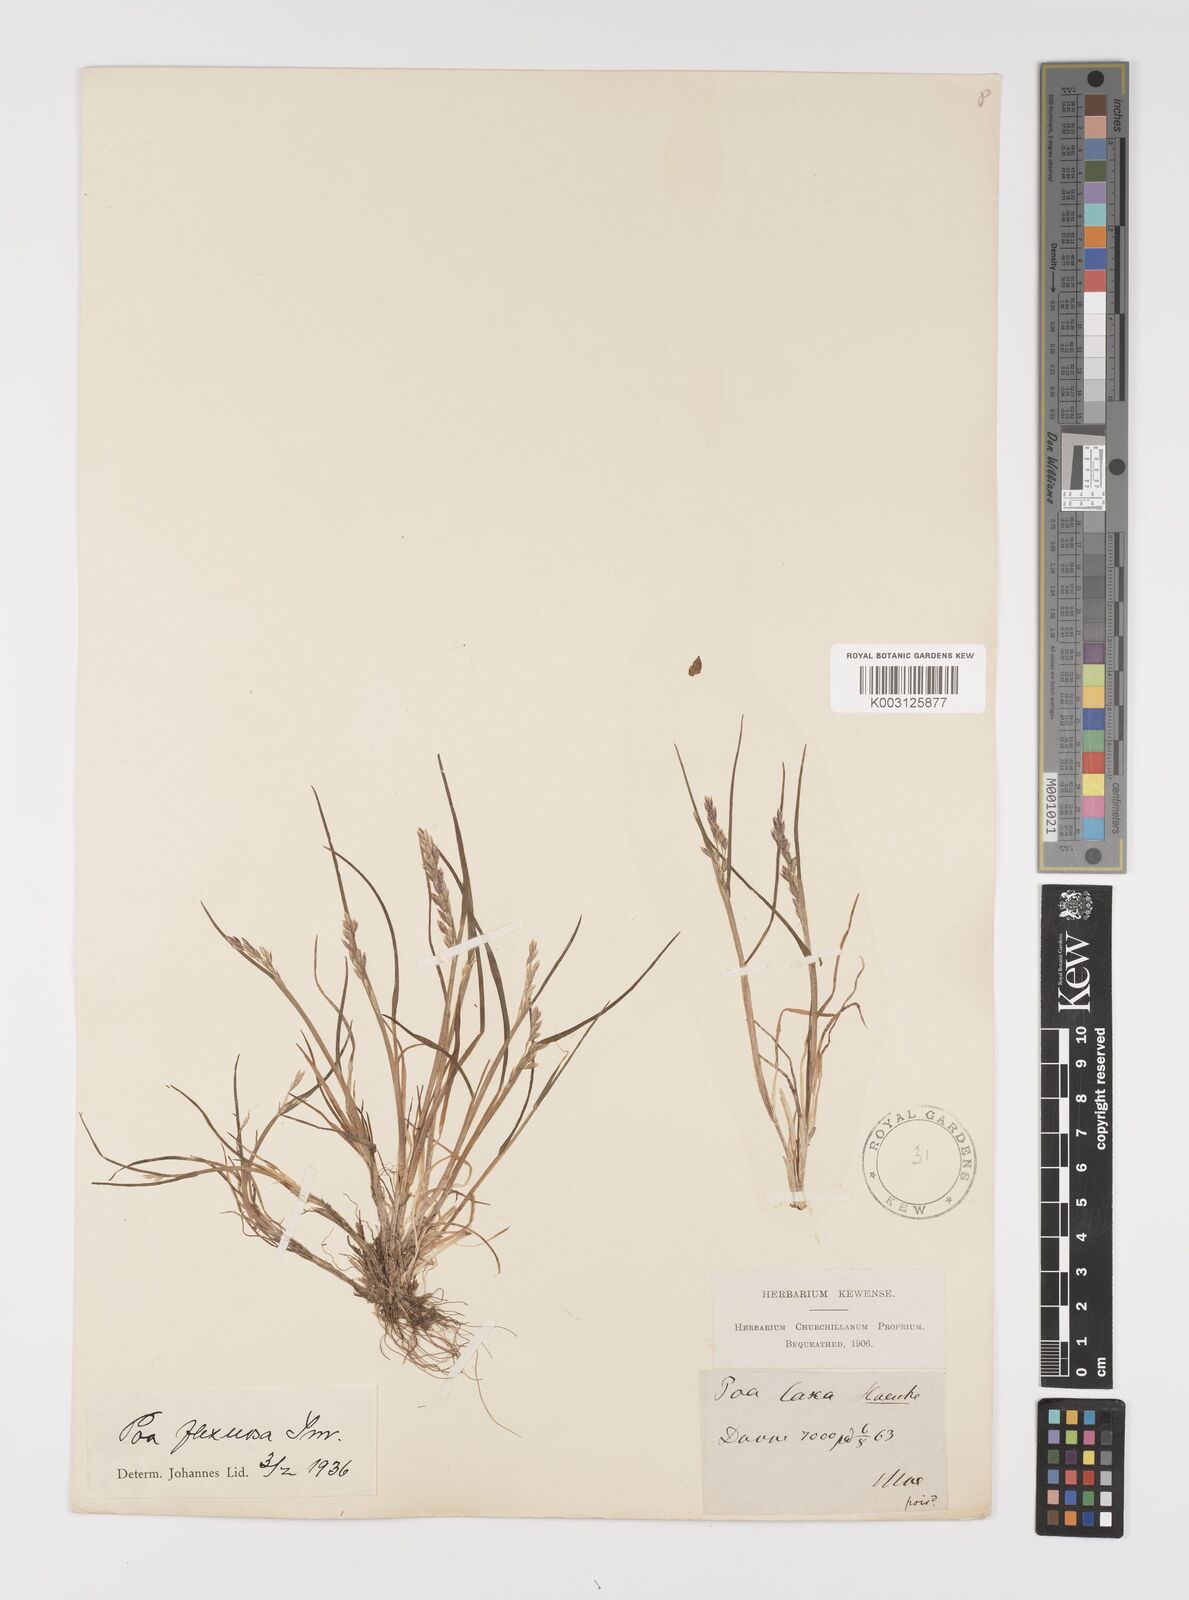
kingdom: Plantae
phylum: Tracheophyta
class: Liliopsida
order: Poales
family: Poaceae
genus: Eragrostis
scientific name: Eragrostis cilianensis
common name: Stinkgrass
